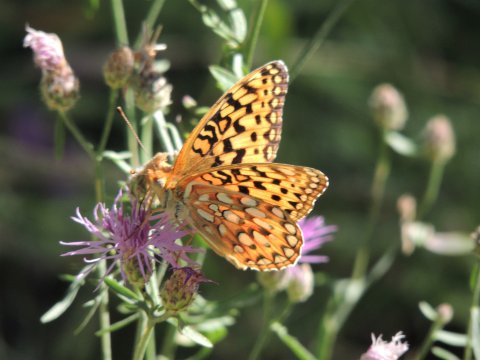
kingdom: Animalia
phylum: Arthropoda
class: Insecta
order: Lepidoptera
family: Nymphalidae
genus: Speyeria
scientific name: Speyeria coronis
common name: Coronis Fritillary
